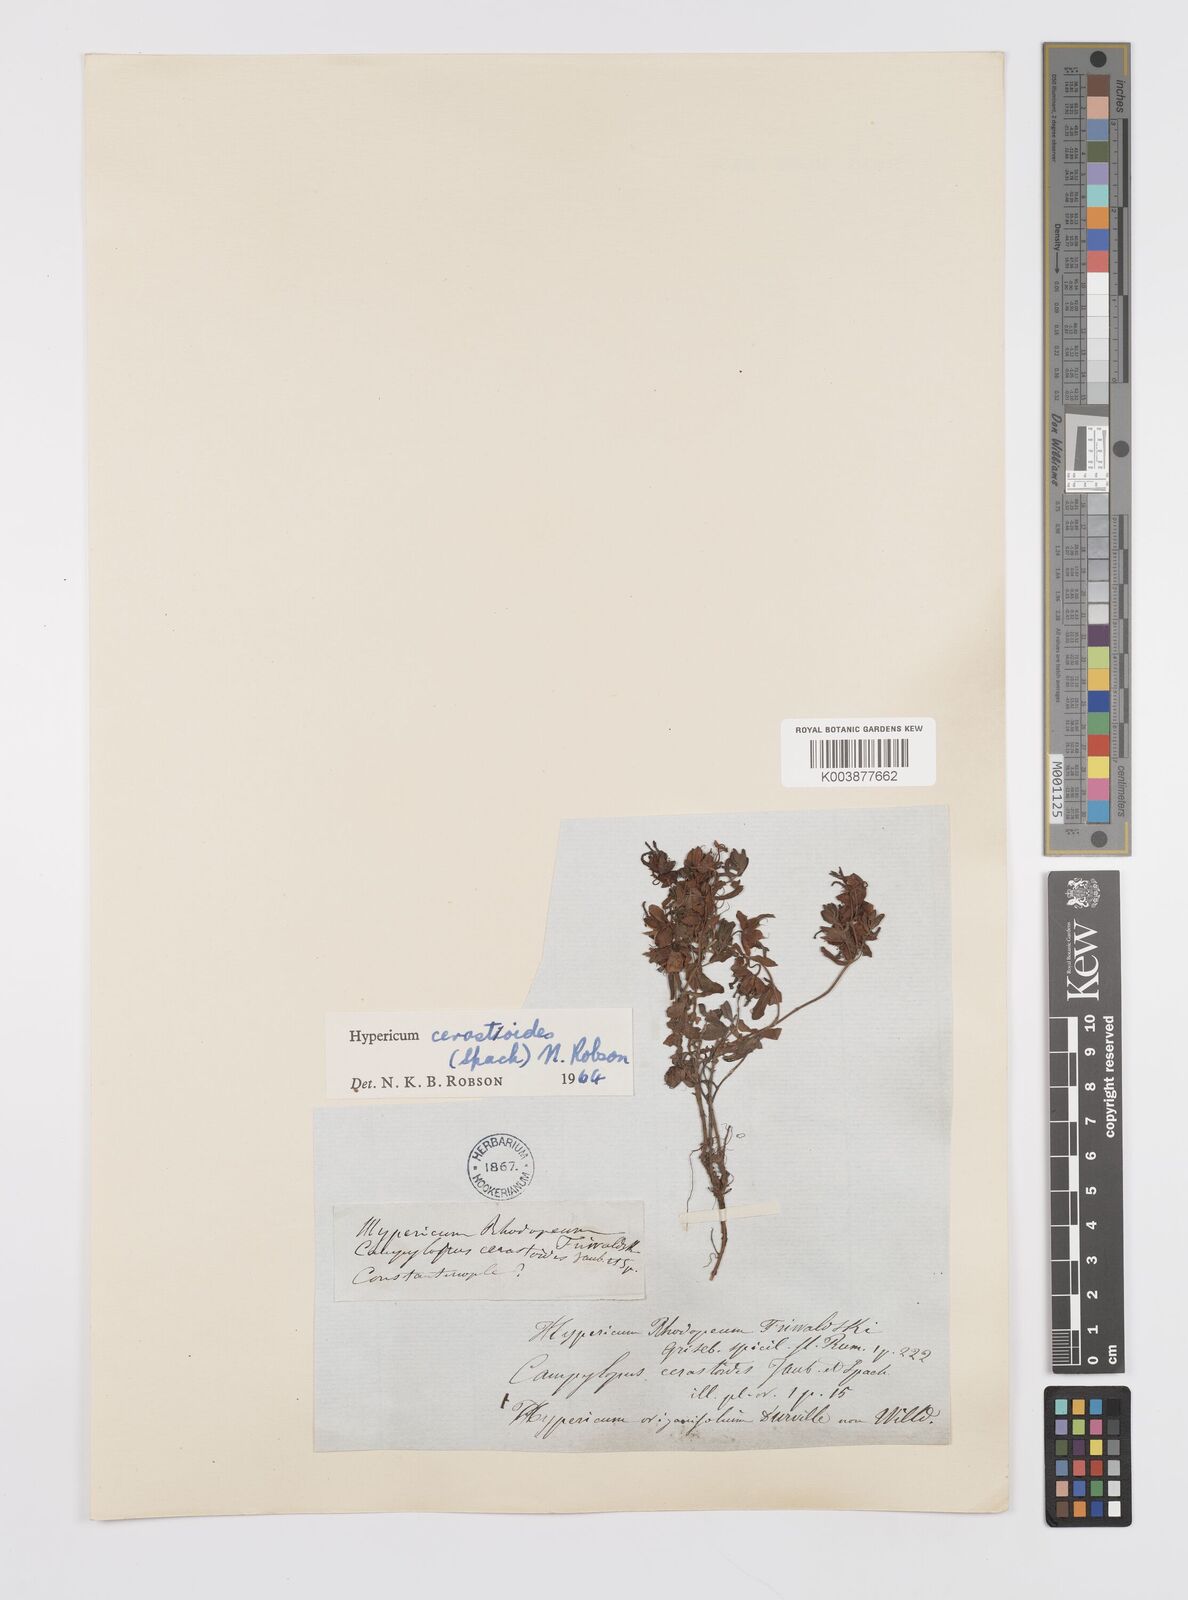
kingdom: Plantae
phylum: Tracheophyta
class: Magnoliopsida
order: Malpighiales
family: Hypericaceae
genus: Hypericum
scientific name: Hypericum cerastoides
